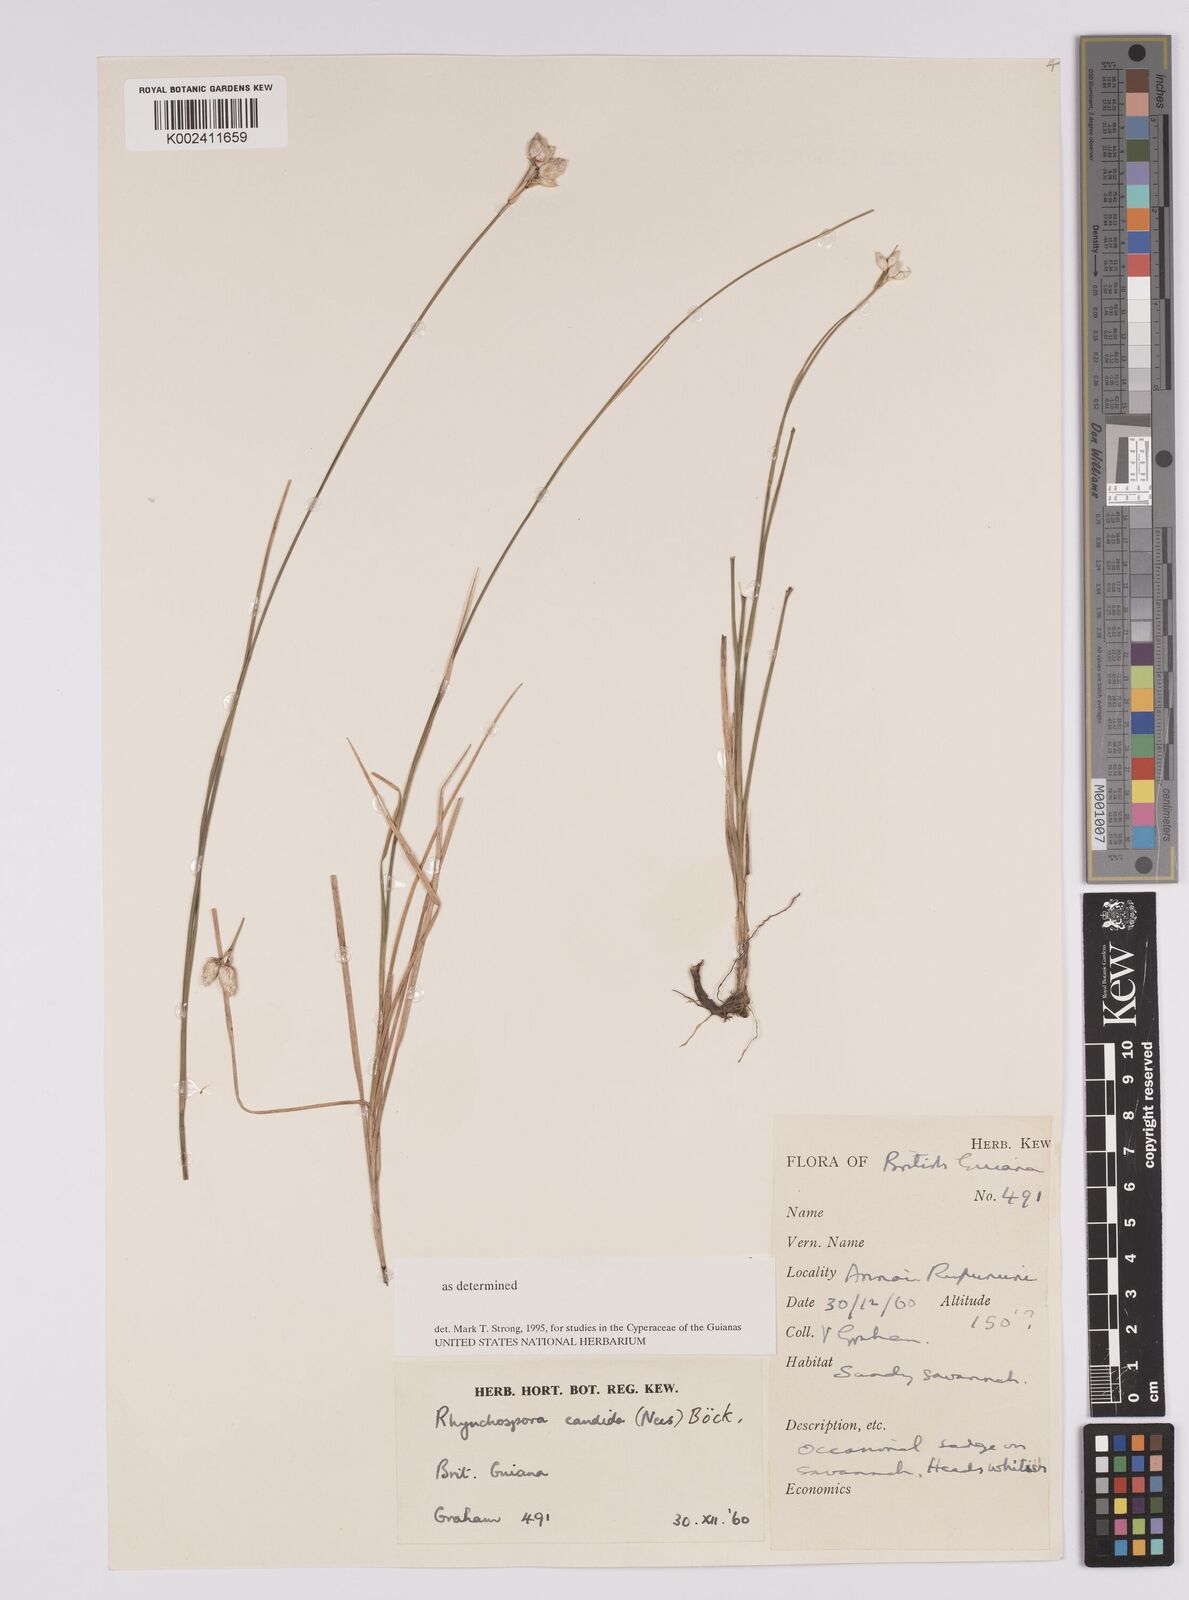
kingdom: Plantae
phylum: Tracheophyta
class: Liliopsida
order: Poales
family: Cyperaceae
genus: Rhynchospora
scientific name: Rhynchospora candida
